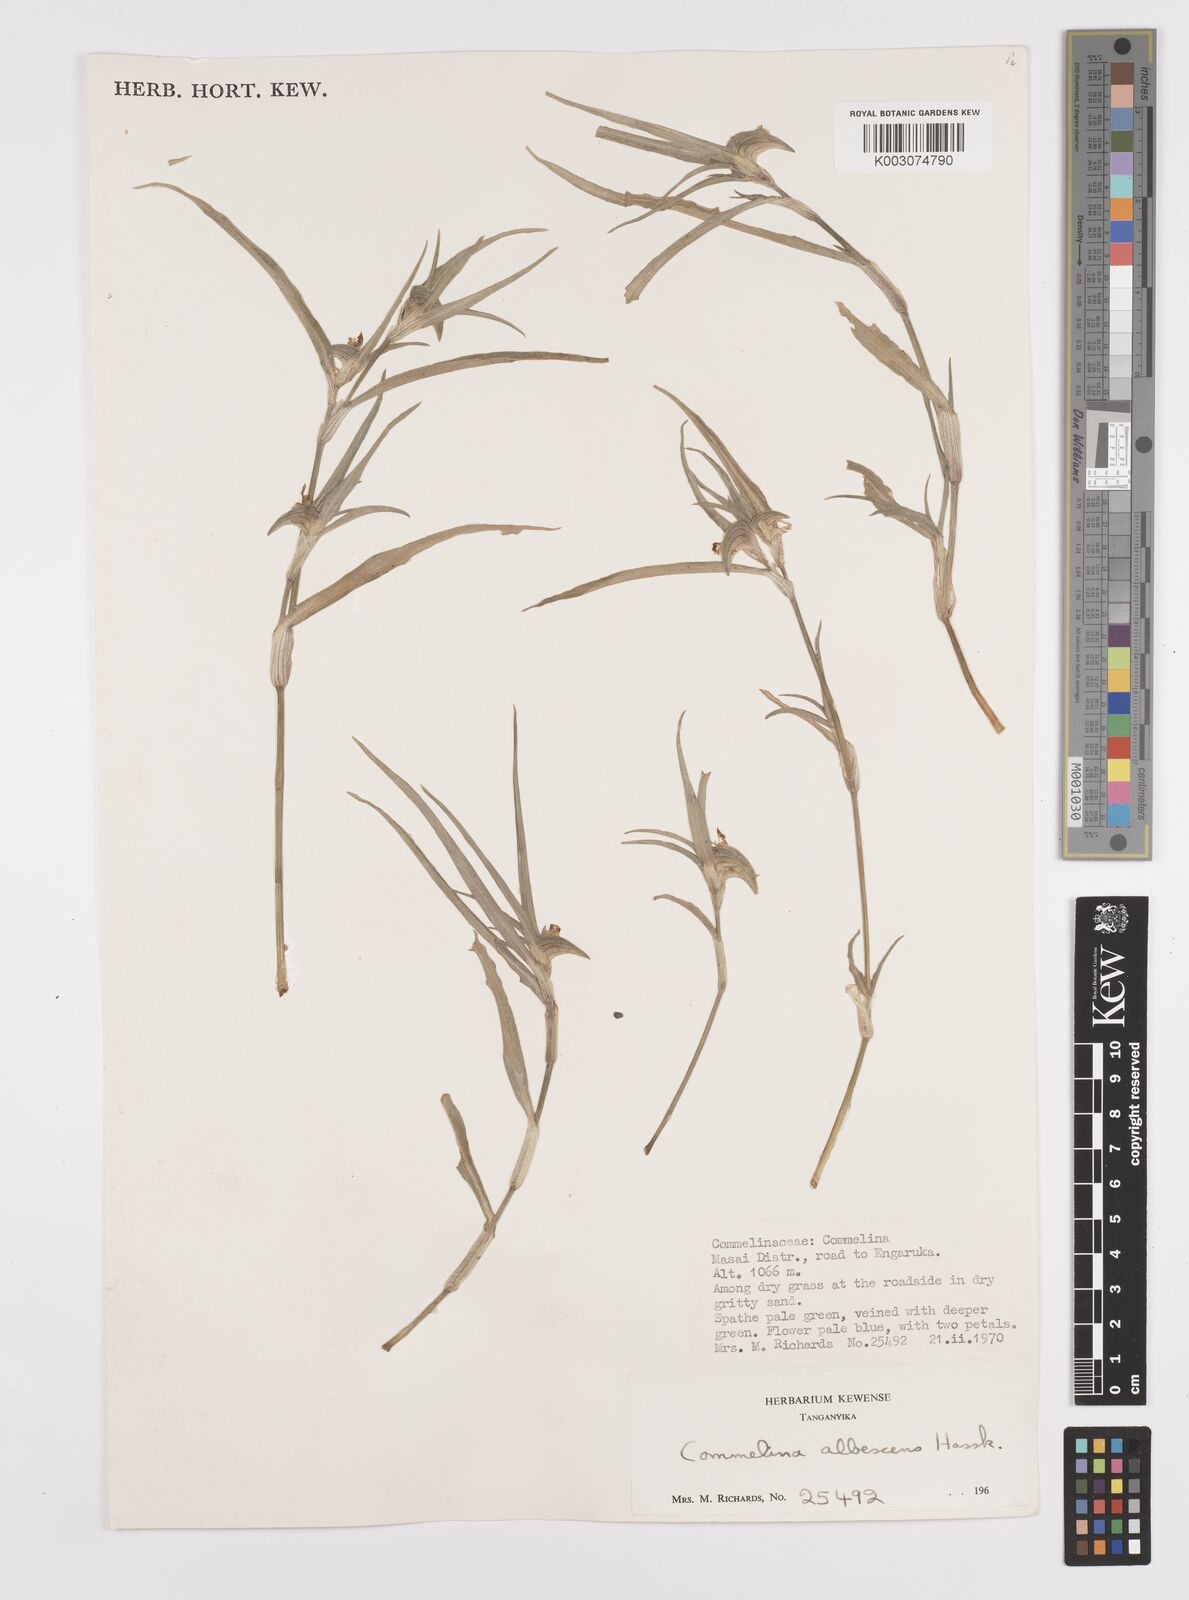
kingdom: Plantae
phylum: Tracheophyta
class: Liliopsida
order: Commelinales
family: Commelinaceae
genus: Commelina
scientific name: Commelina albescens
